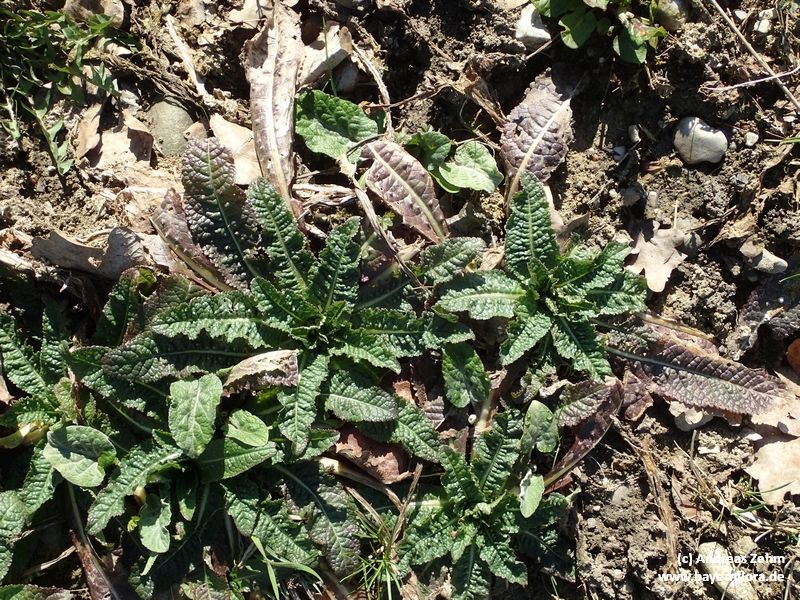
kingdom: Plantae
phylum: Tracheophyta
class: Magnoliopsida
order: Dipsacales
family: Caprifoliaceae
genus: Dipsacus
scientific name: Dipsacus strigosus
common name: Yellow-flowered teasel
